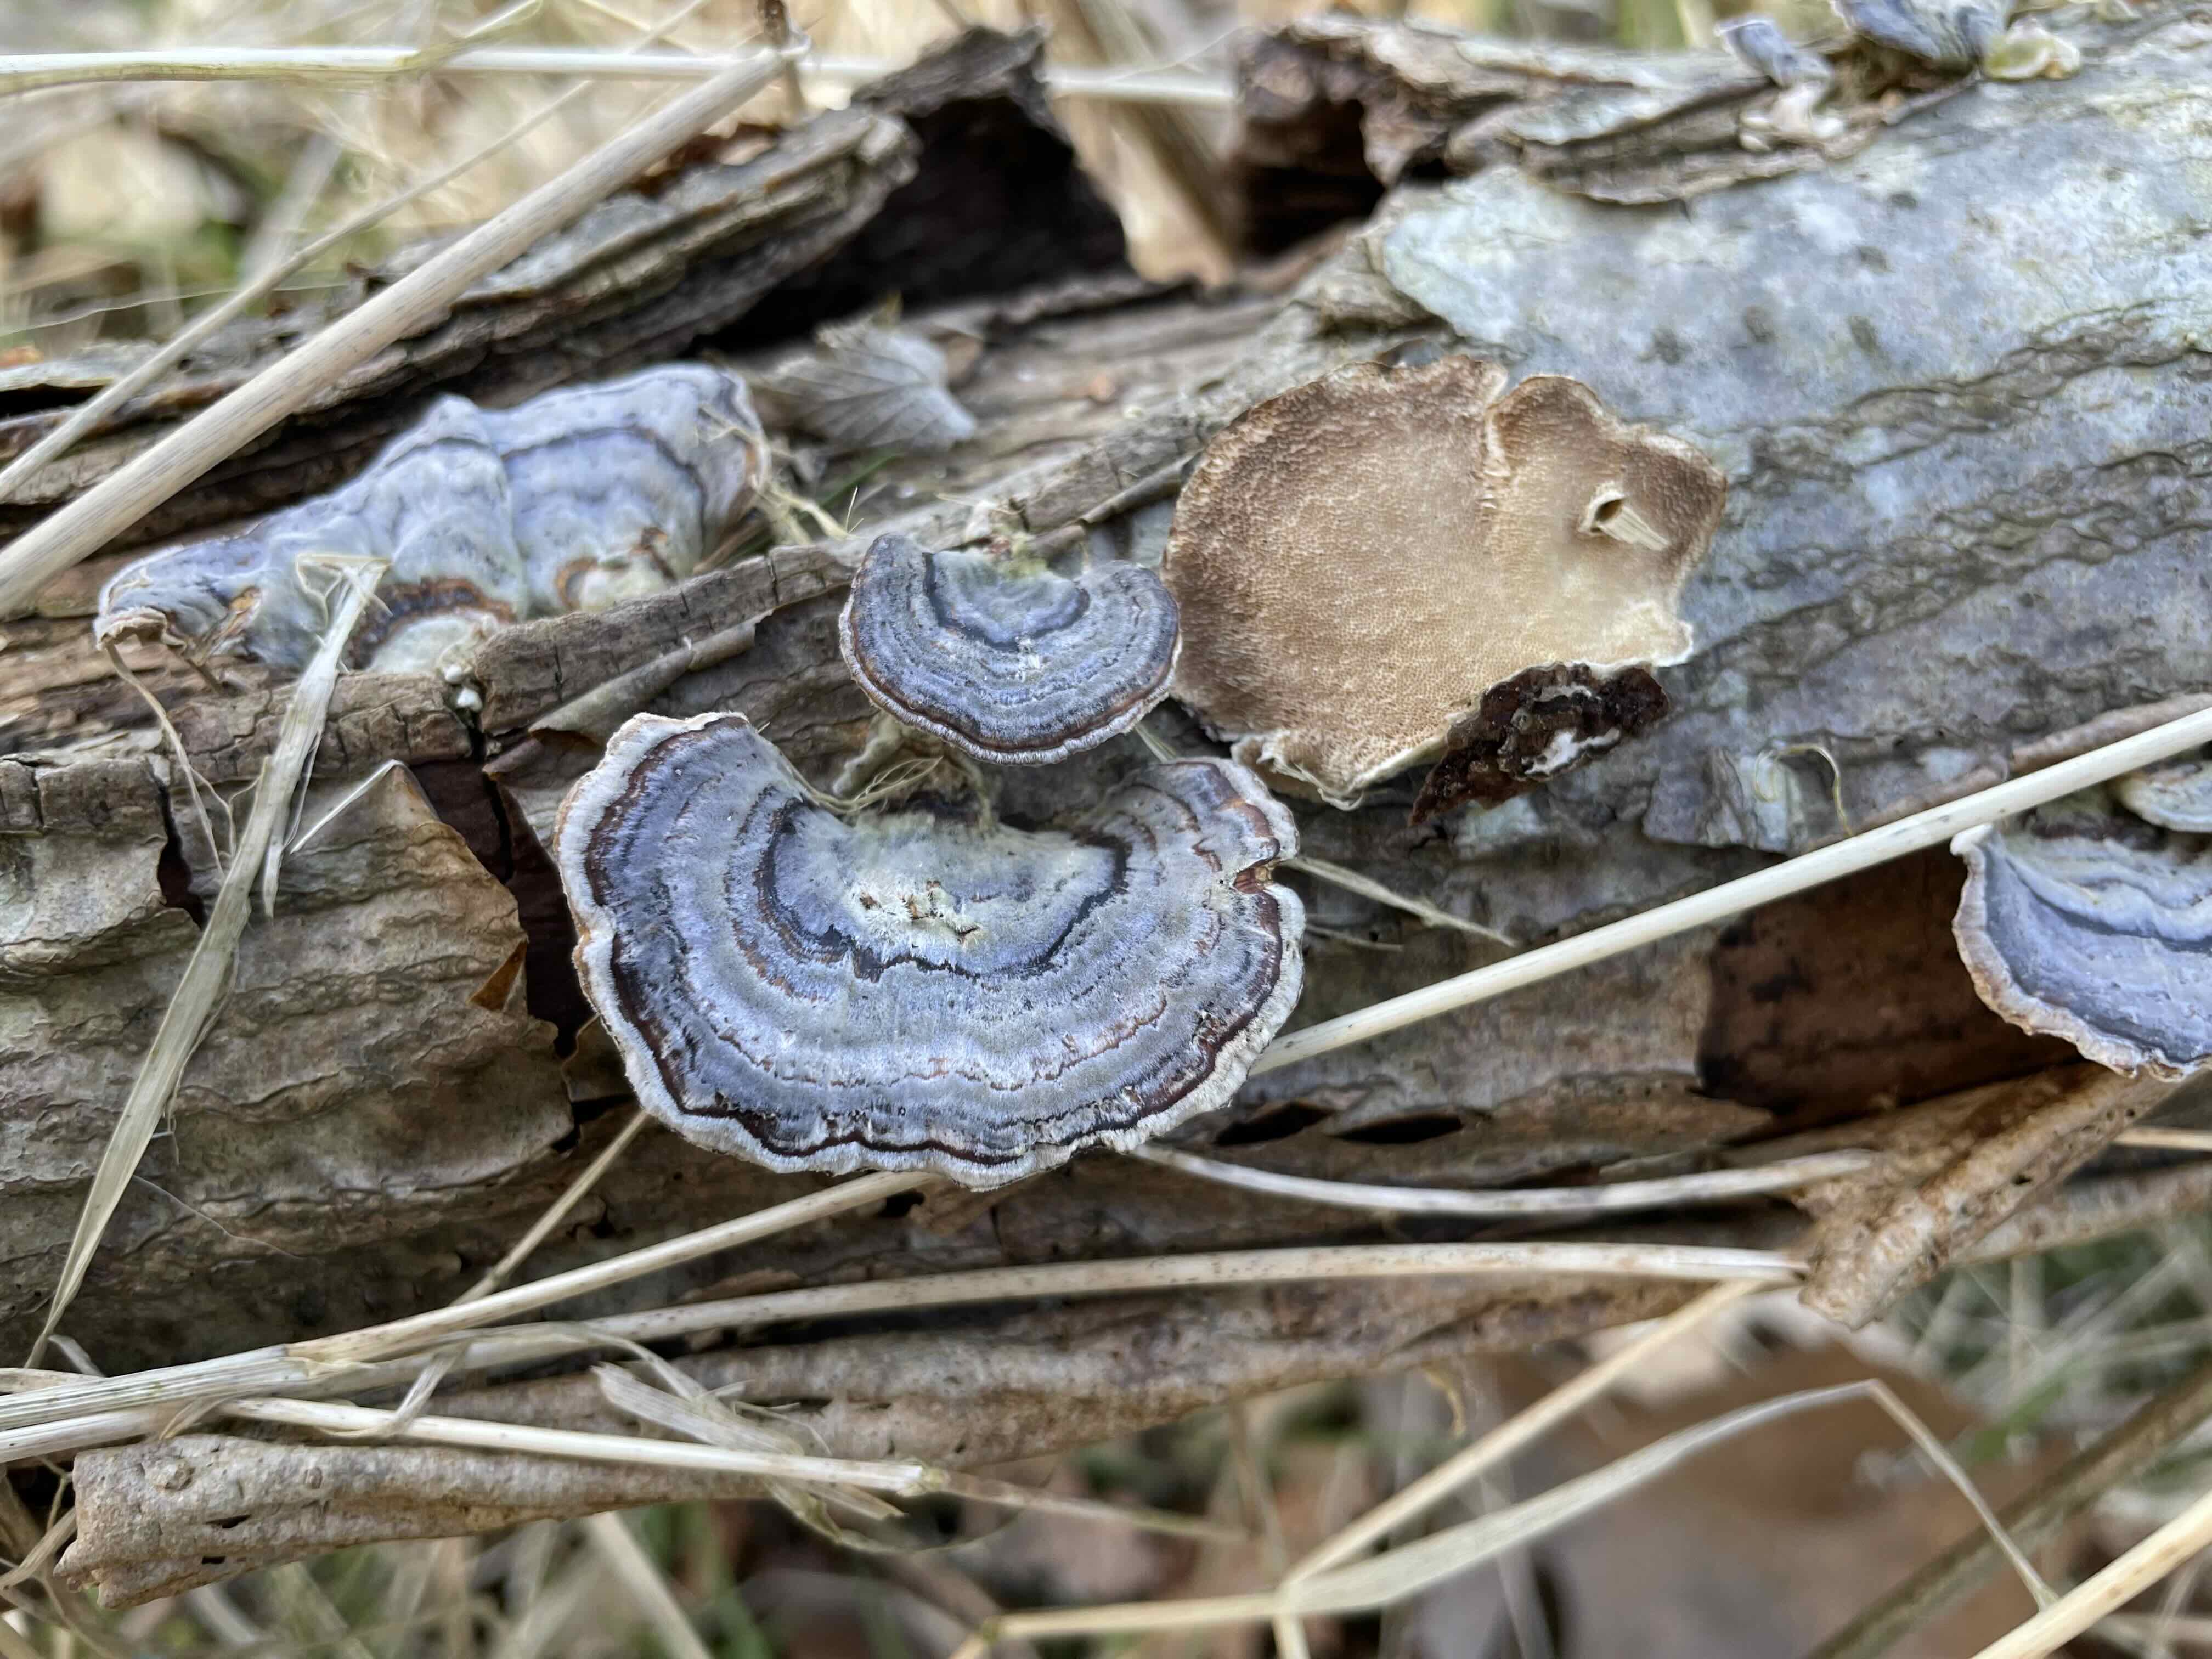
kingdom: Fungi
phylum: Basidiomycota
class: Agaricomycetes
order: Polyporales
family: Polyporaceae
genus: Trametes
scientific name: Trametes versicolor
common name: broget læderporesvamp
